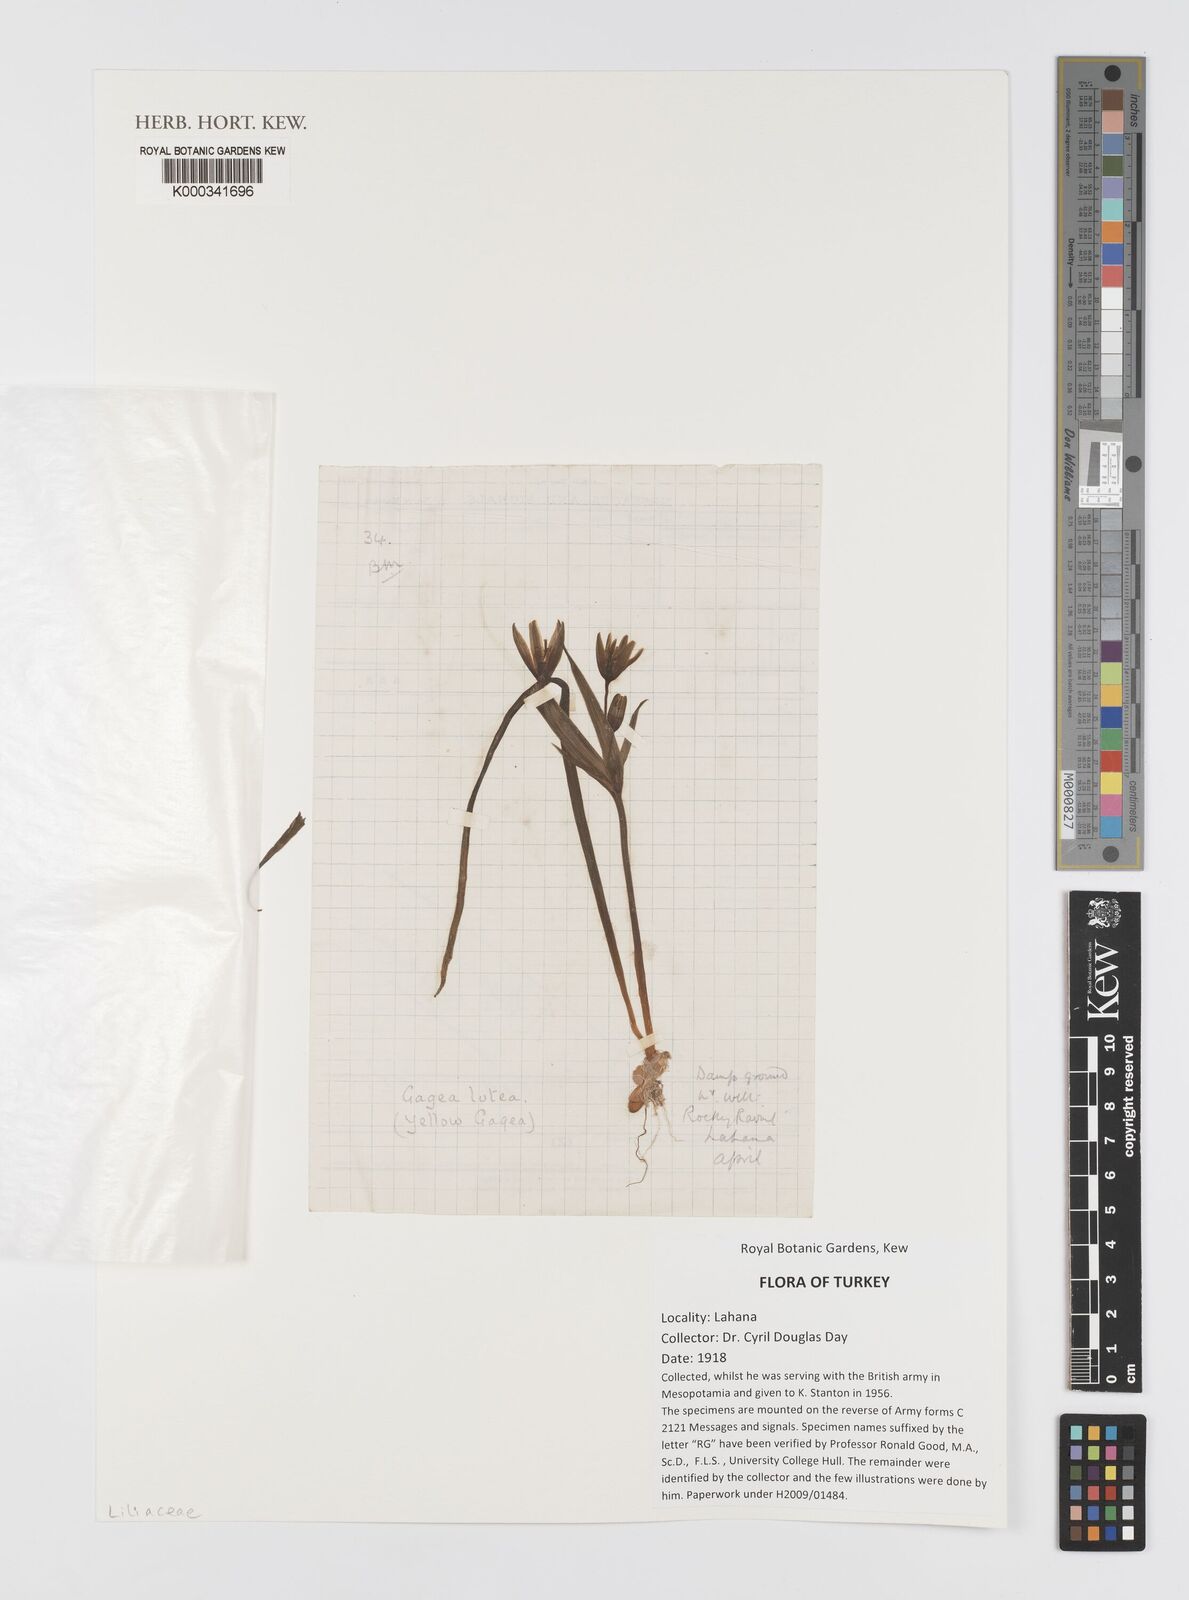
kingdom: Plantae
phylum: Tracheophyta
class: Liliopsida
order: Liliales
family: Liliaceae
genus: Gagea
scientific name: Gagea lutea
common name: Yellow star-of-bethlehem
